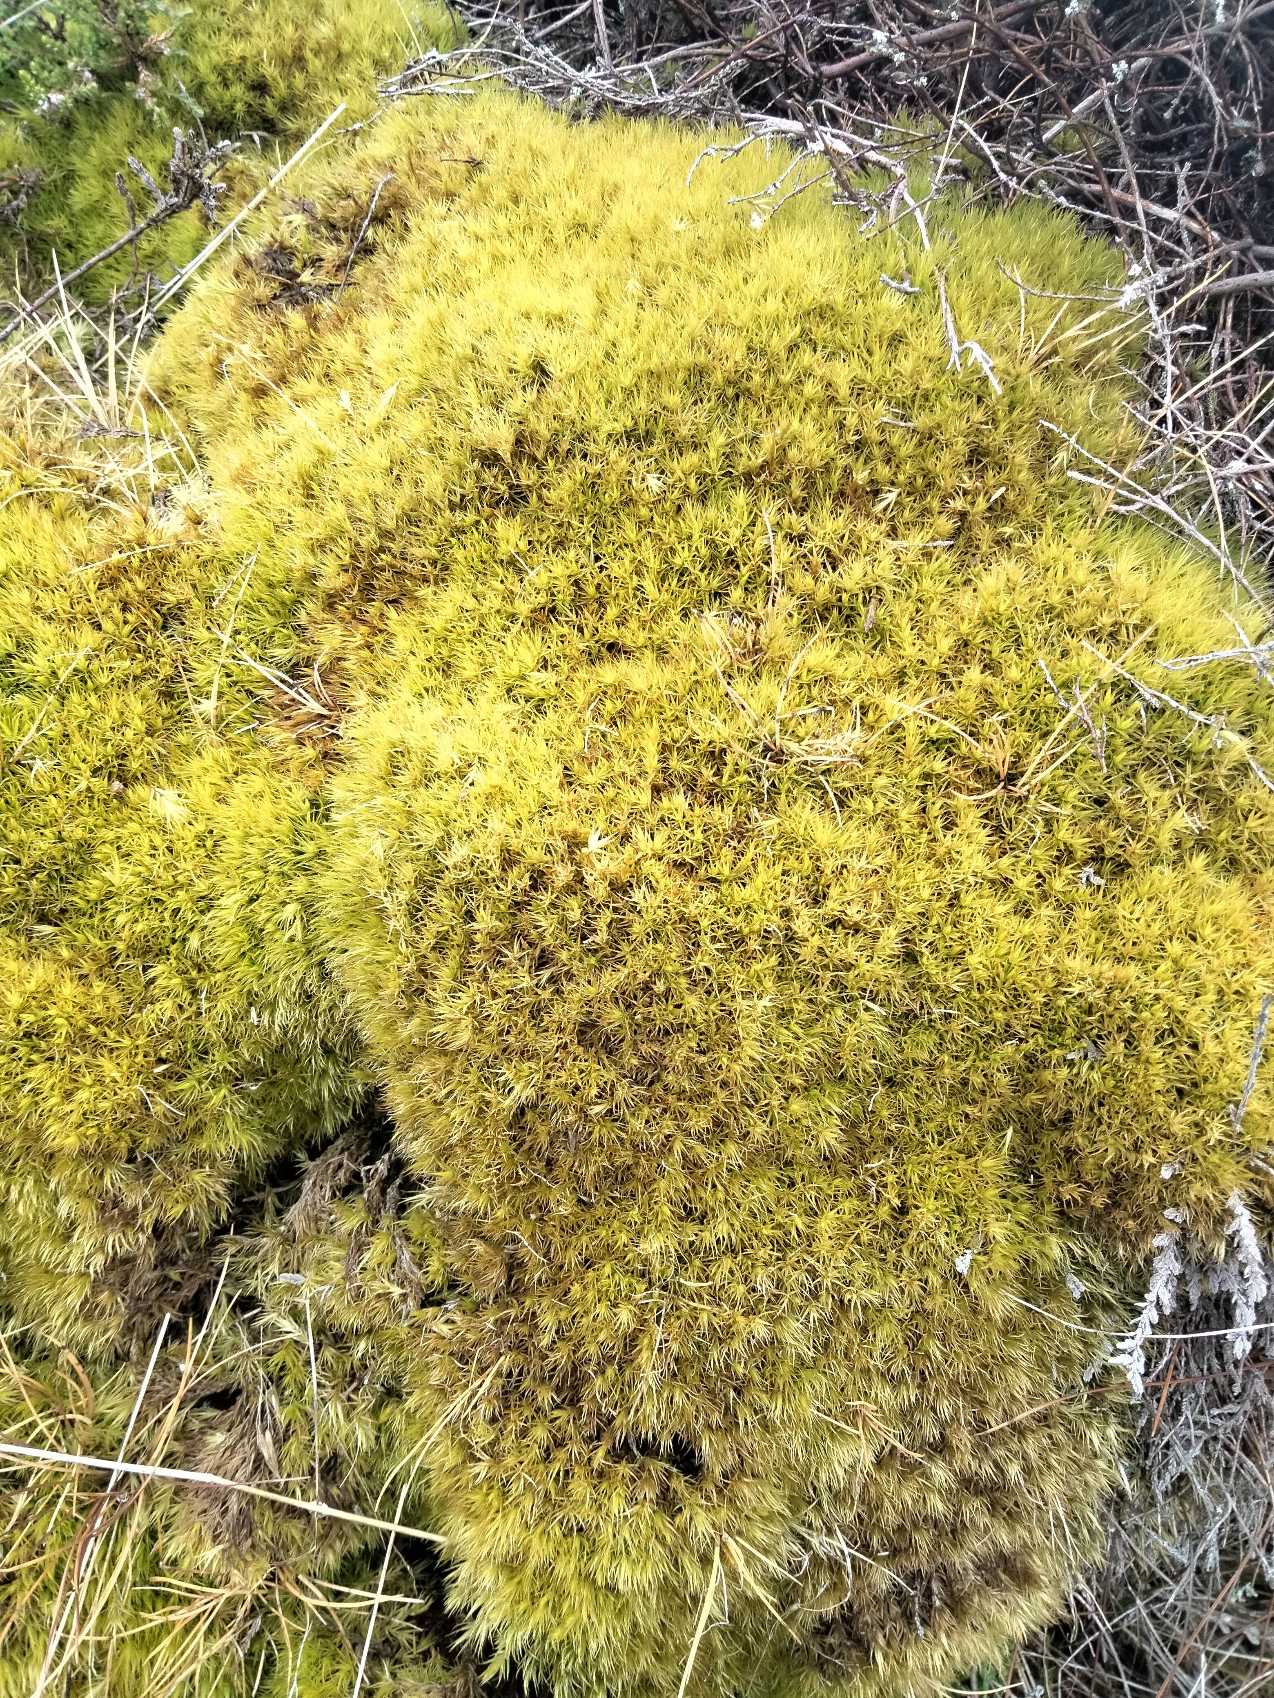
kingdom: Plantae
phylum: Bryophyta
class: Bryopsida
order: Dicranales
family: Dicranaceae
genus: Dicranum
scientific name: Dicranum scoparium
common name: Almindelig kløvtand
